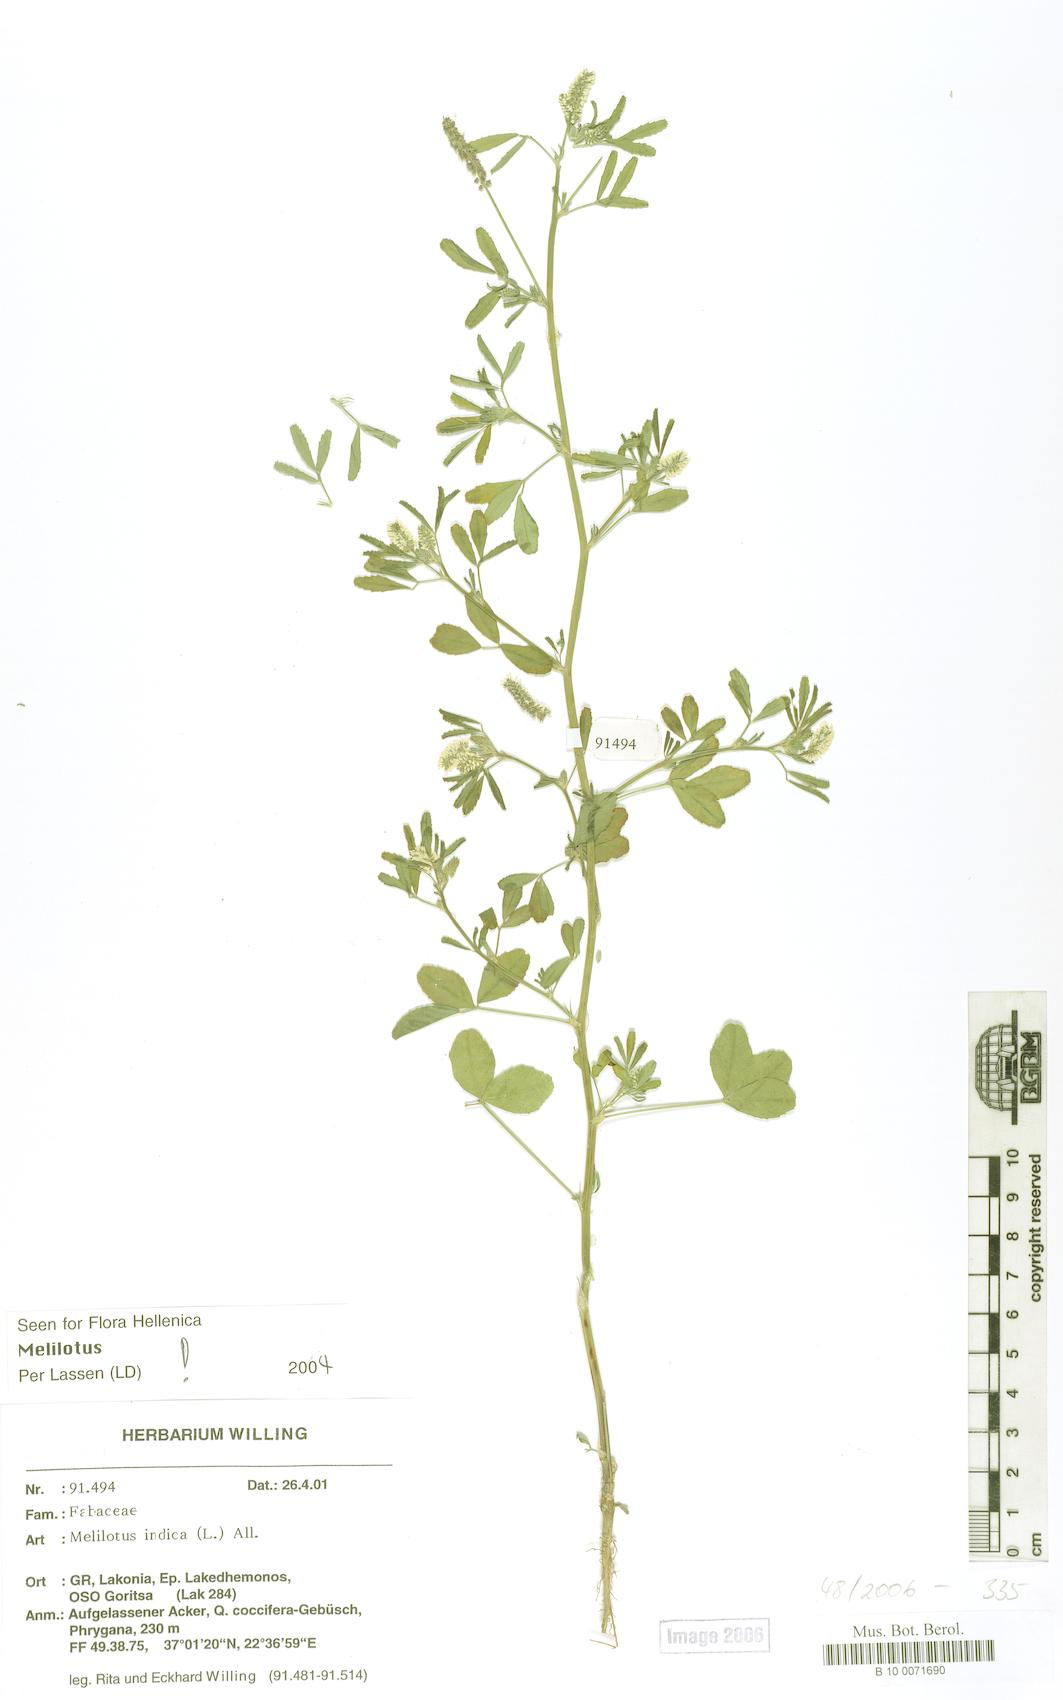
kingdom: Plantae
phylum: Tracheophyta
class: Magnoliopsida
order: Fabales
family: Fabaceae
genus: Melilotus
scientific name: Melilotus indicus
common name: Small melilot
